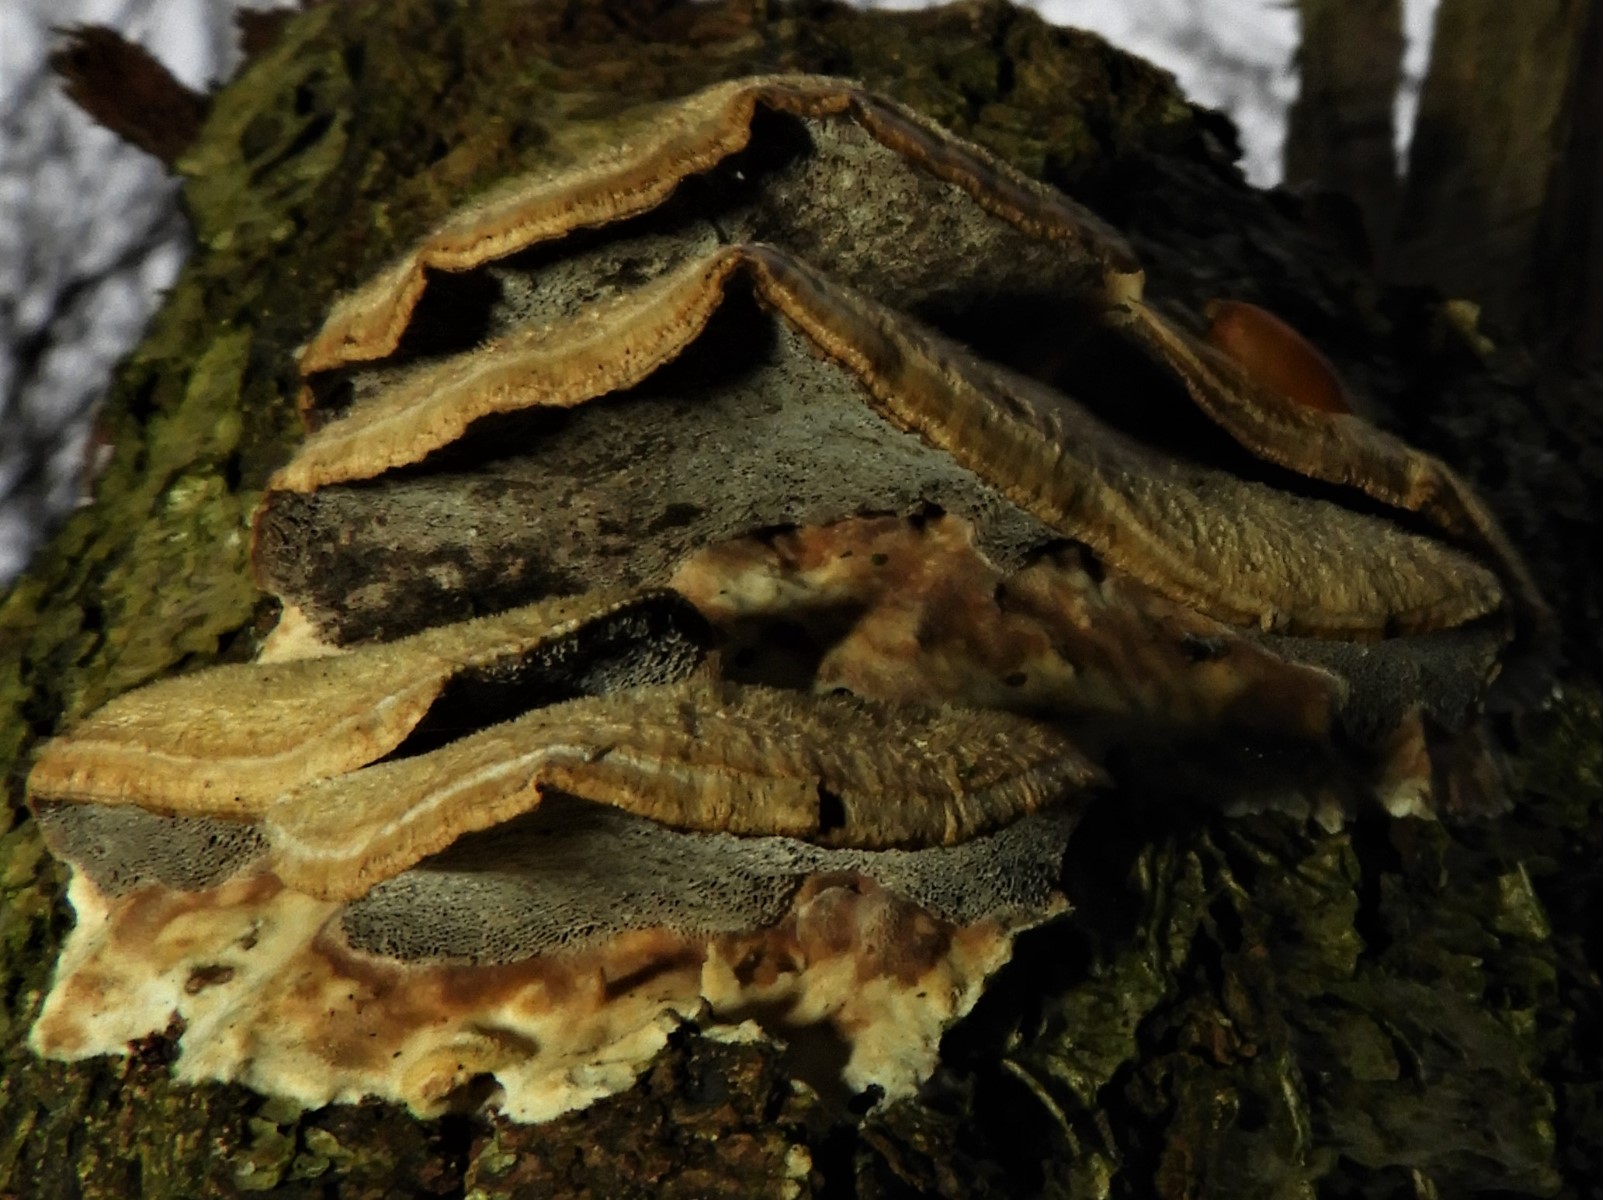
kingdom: Fungi
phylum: Basidiomycota
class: Agaricomycetes
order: Polyporales
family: Polyporaceae
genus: Trametes
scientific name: Trametes hirsuta
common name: håret læderporesvamp
